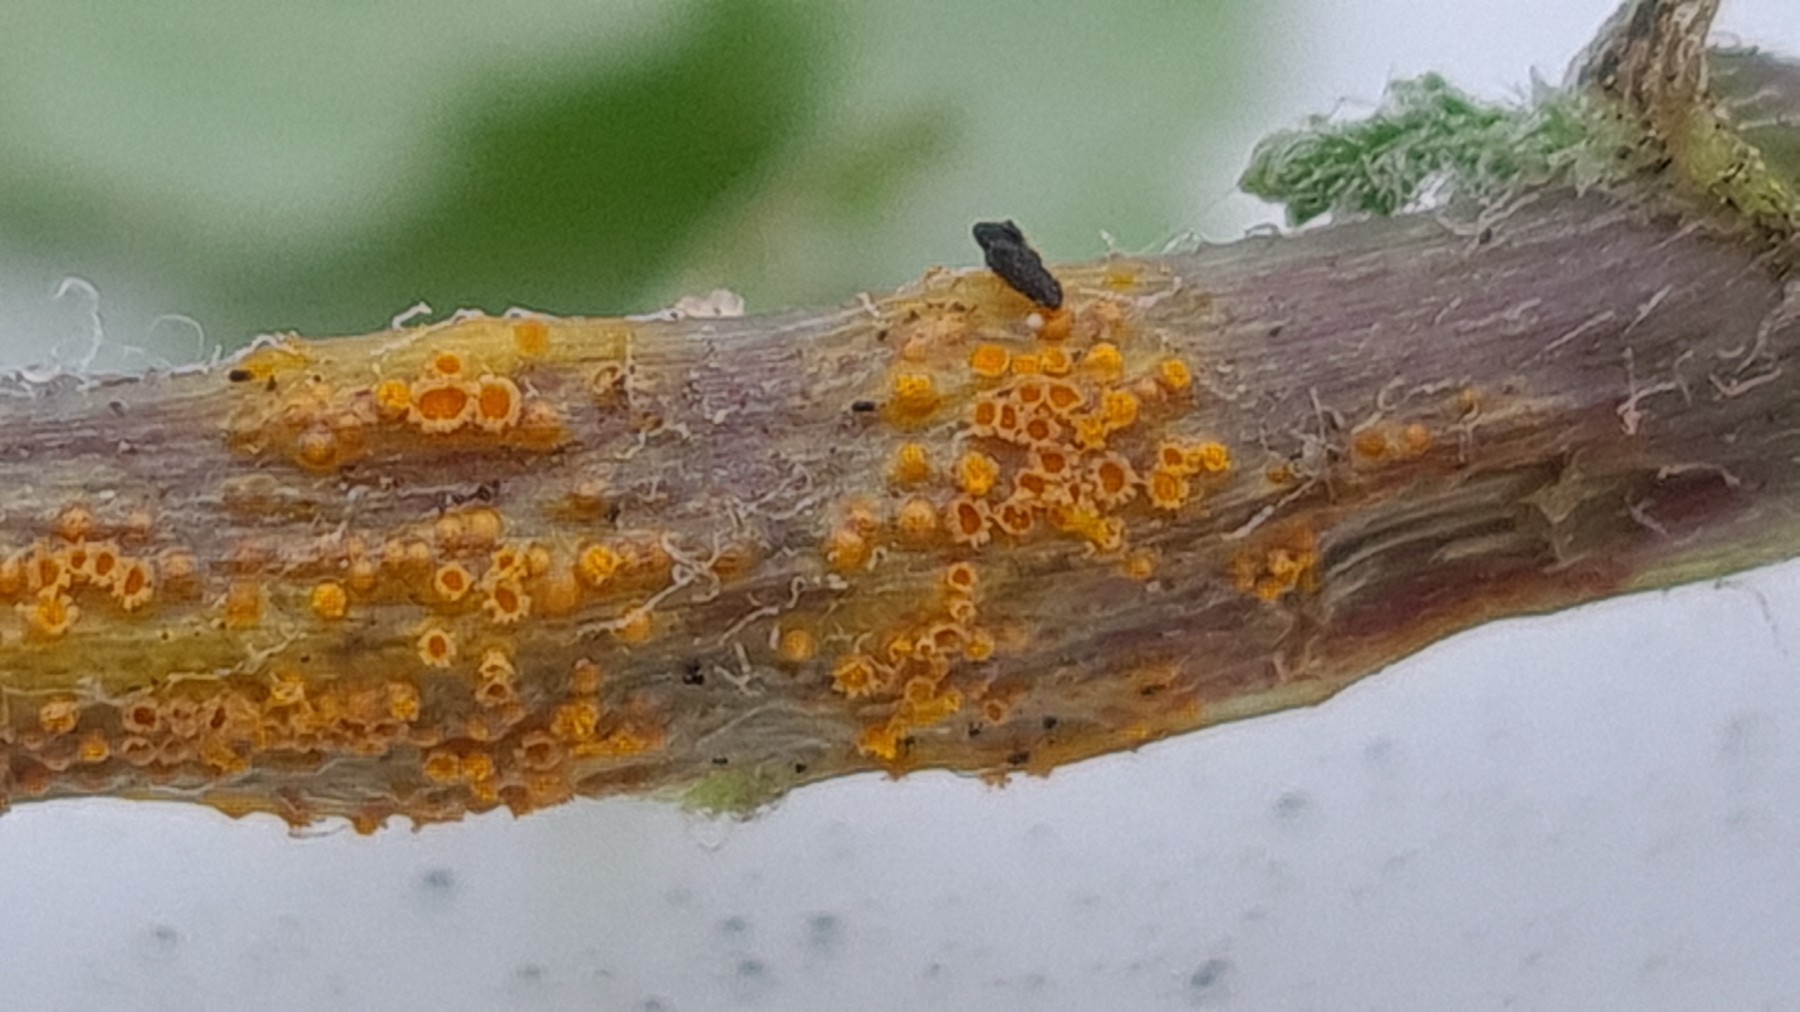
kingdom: Fungi
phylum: Basidiomycota
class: Pucciniomycetes
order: Pucciniales
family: Pucciniaceae
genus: Puccinia
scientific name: Puccinia lagenophorae
